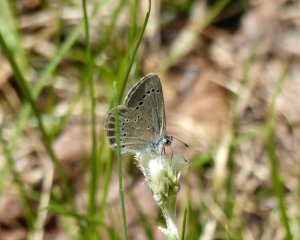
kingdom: Animalia
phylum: Arthropoda
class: Insecta
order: Lepidoptera
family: Lycaenidae
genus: Glaucopsyche
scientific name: Glaucopsyche lygdamus
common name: Silvery Blue
